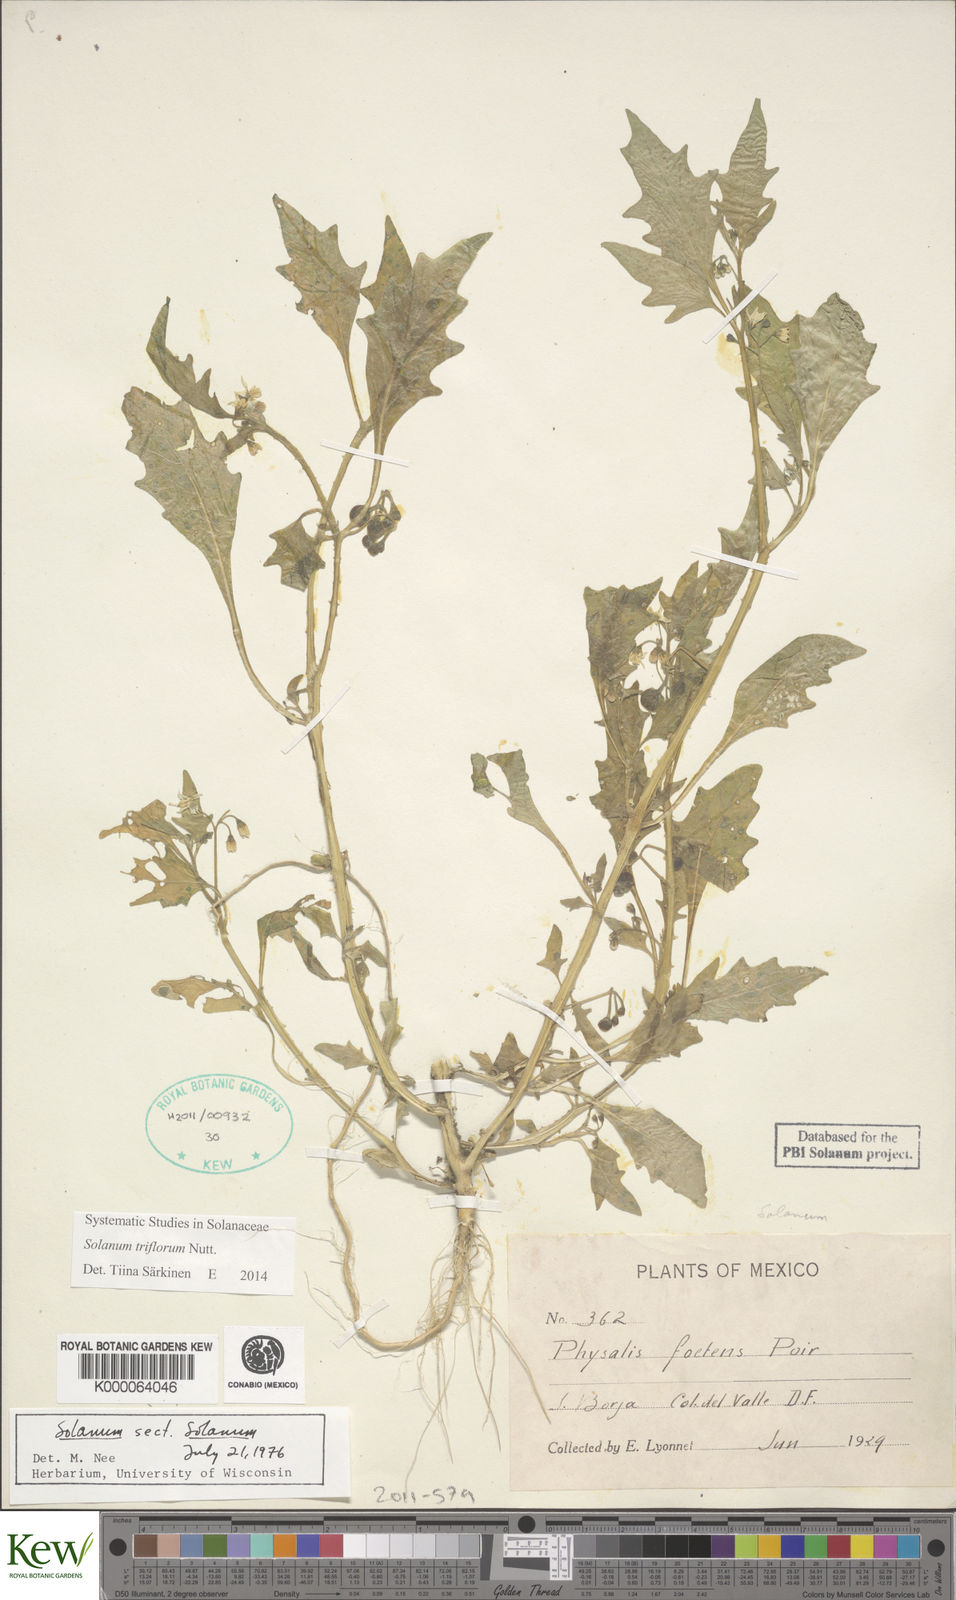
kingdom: Plantae
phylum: Tracheophyta
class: Magnoliopsida
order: Solanales
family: Solanaceae
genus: Solanum
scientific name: Solanum
